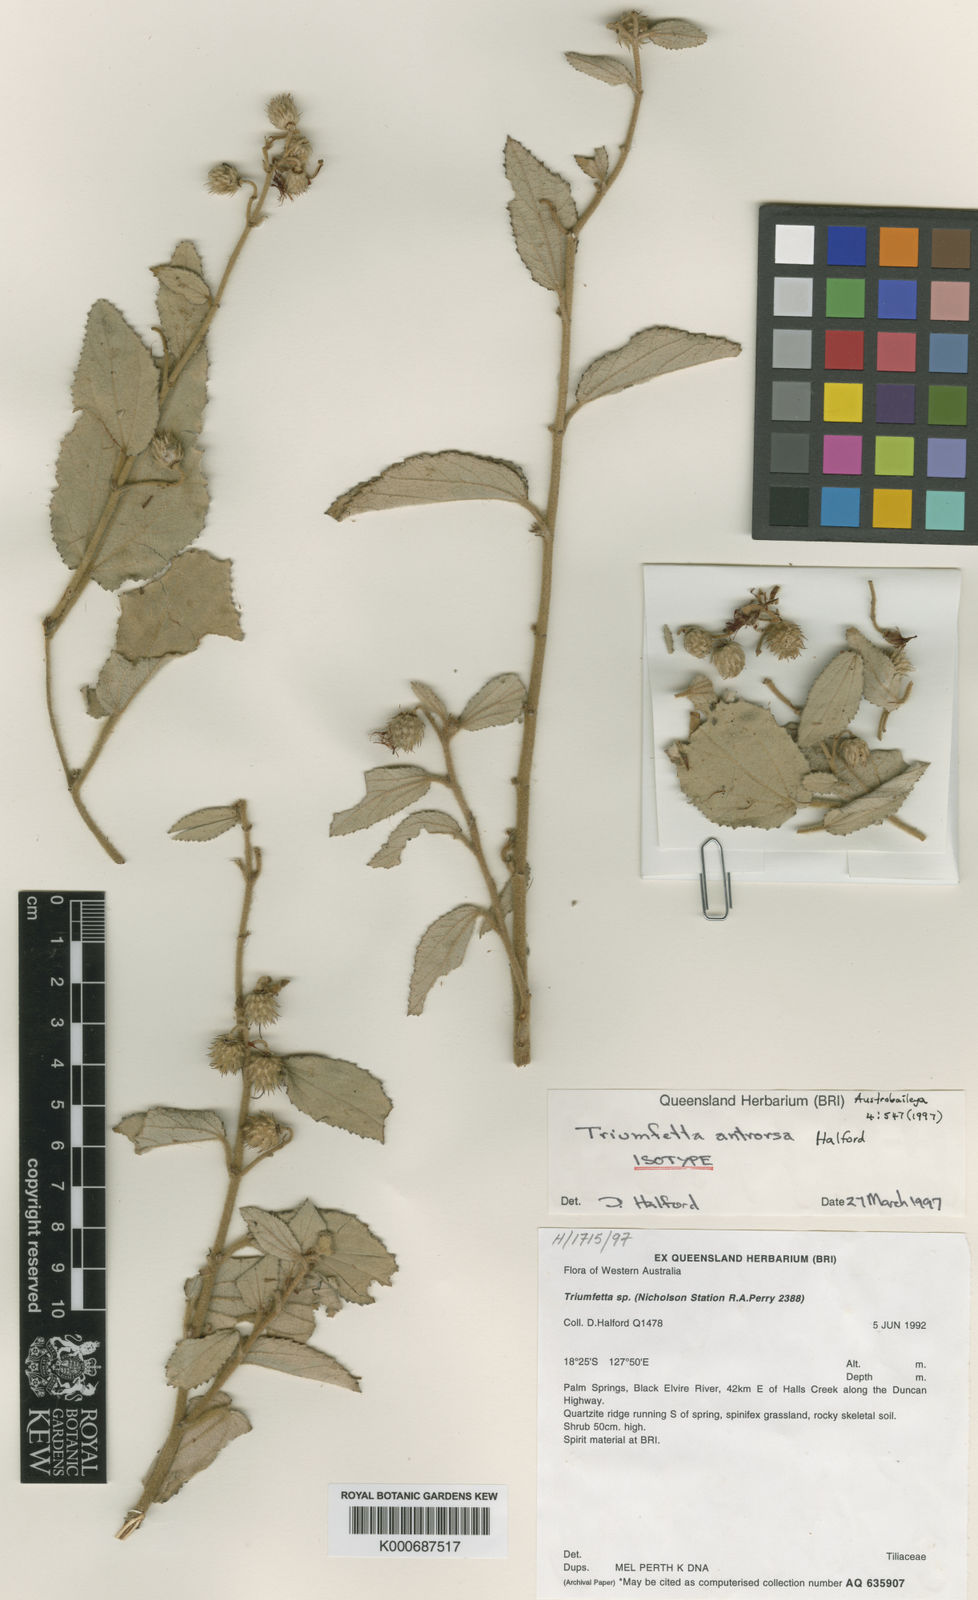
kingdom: Plantae
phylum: Tracheophyta
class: Magnoliopsida
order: Malvales
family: Malvaceae
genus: Triumfetta
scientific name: Triumfetta antrorsa
